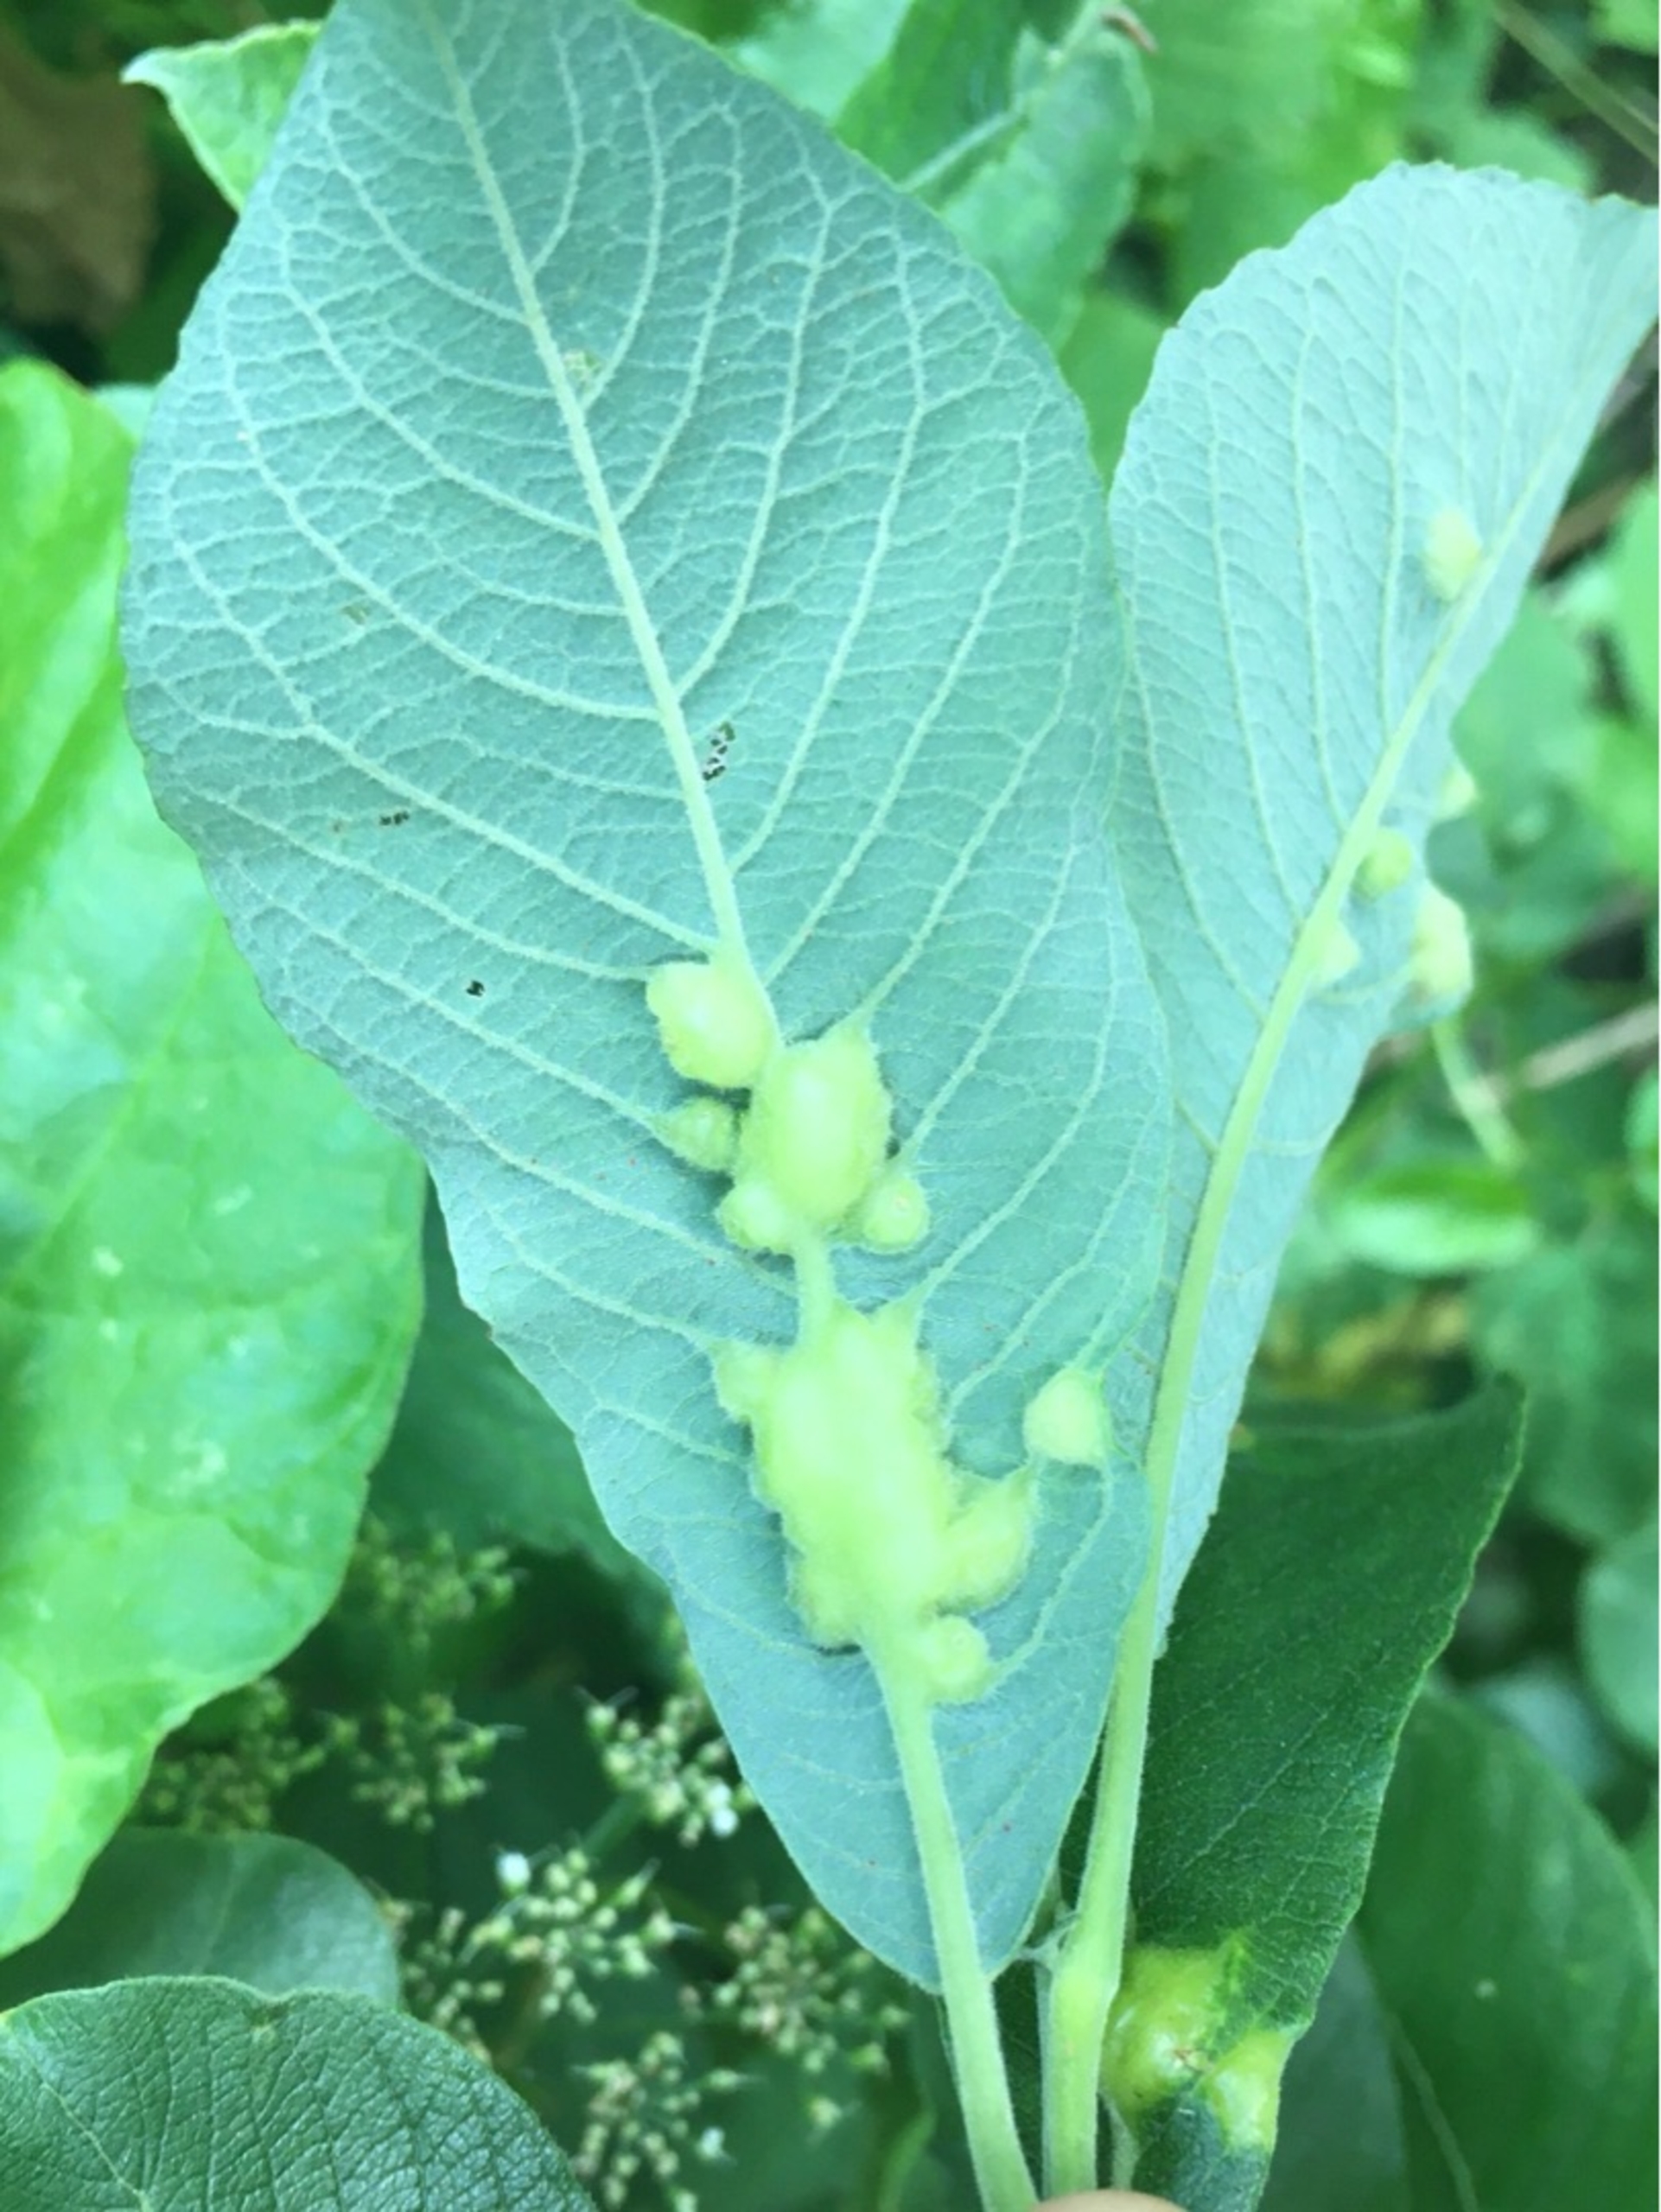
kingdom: Animalia
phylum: Arthropoda
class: Insecta
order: Diptera
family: Cecidomyiidae
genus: Iteomyia
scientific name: Iteomyia major
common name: Stor seljebladgalmyg
